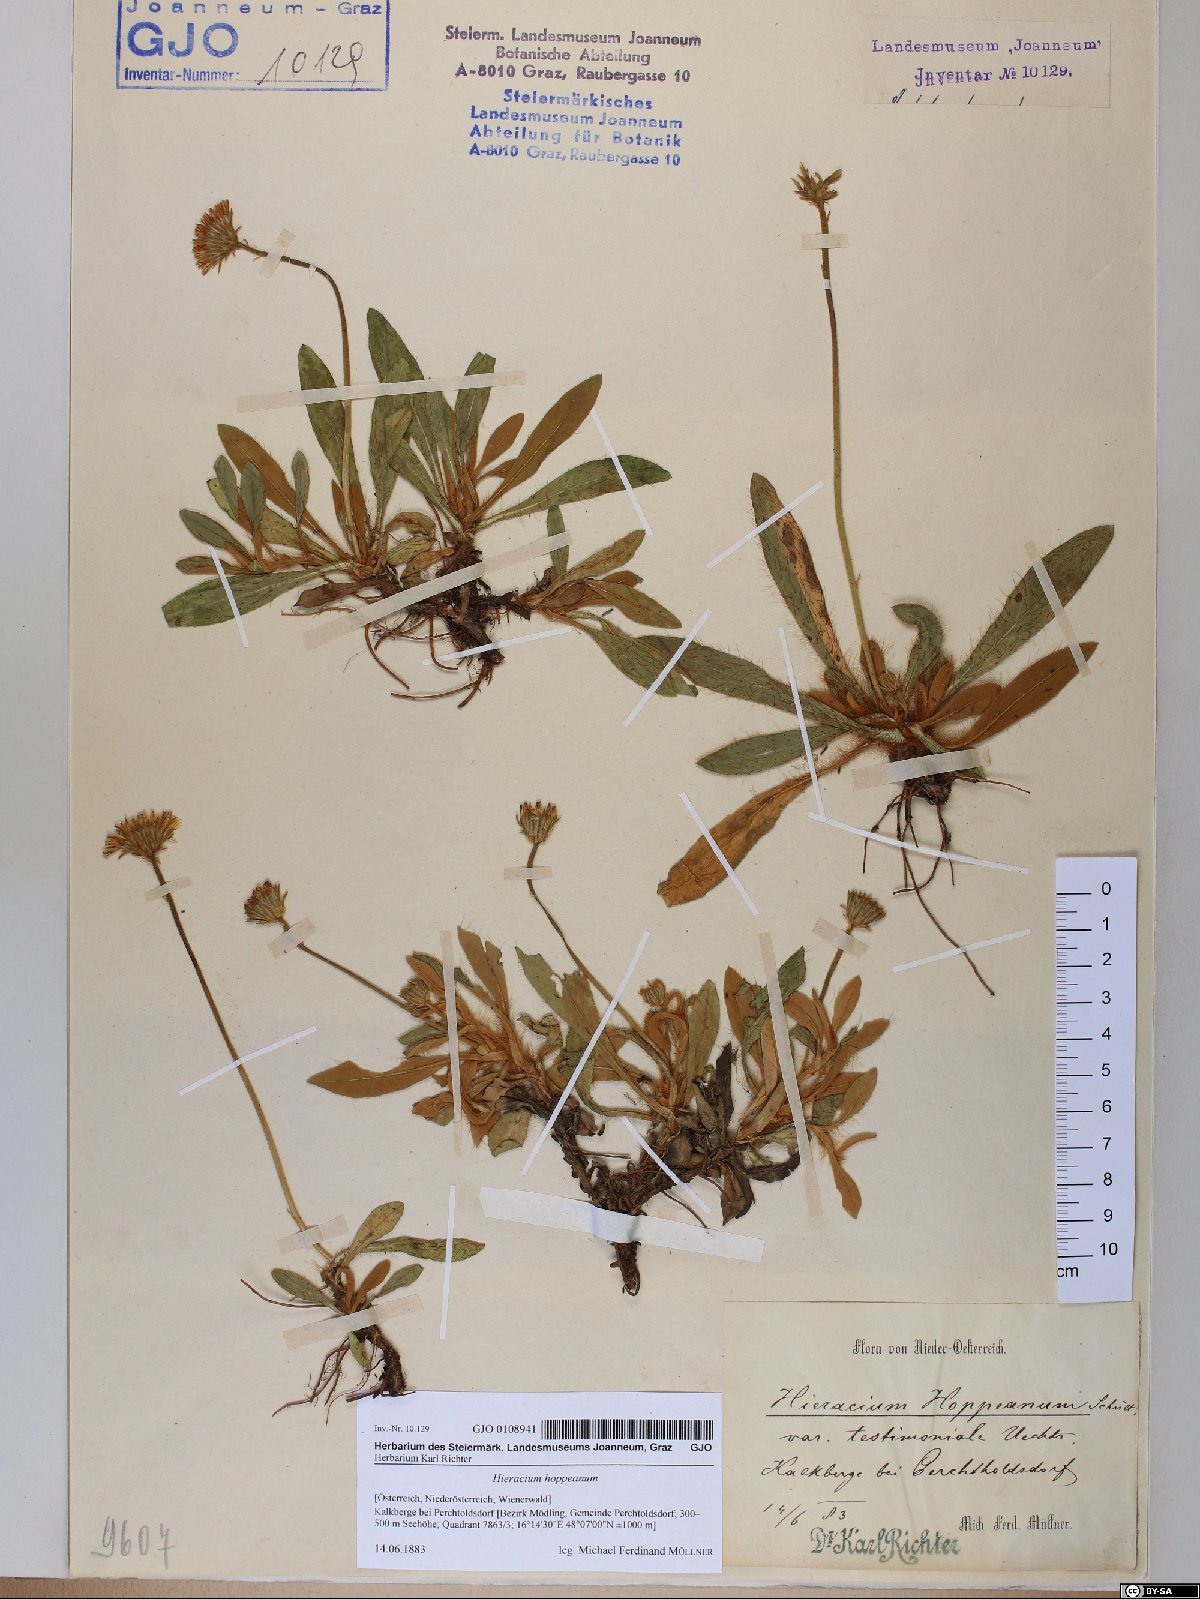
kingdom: Plantae
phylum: Tracheophyta
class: Magnoliopsida
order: Asterales
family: Asteraceae
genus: Pilosella
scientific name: Pilosella hoppeana
